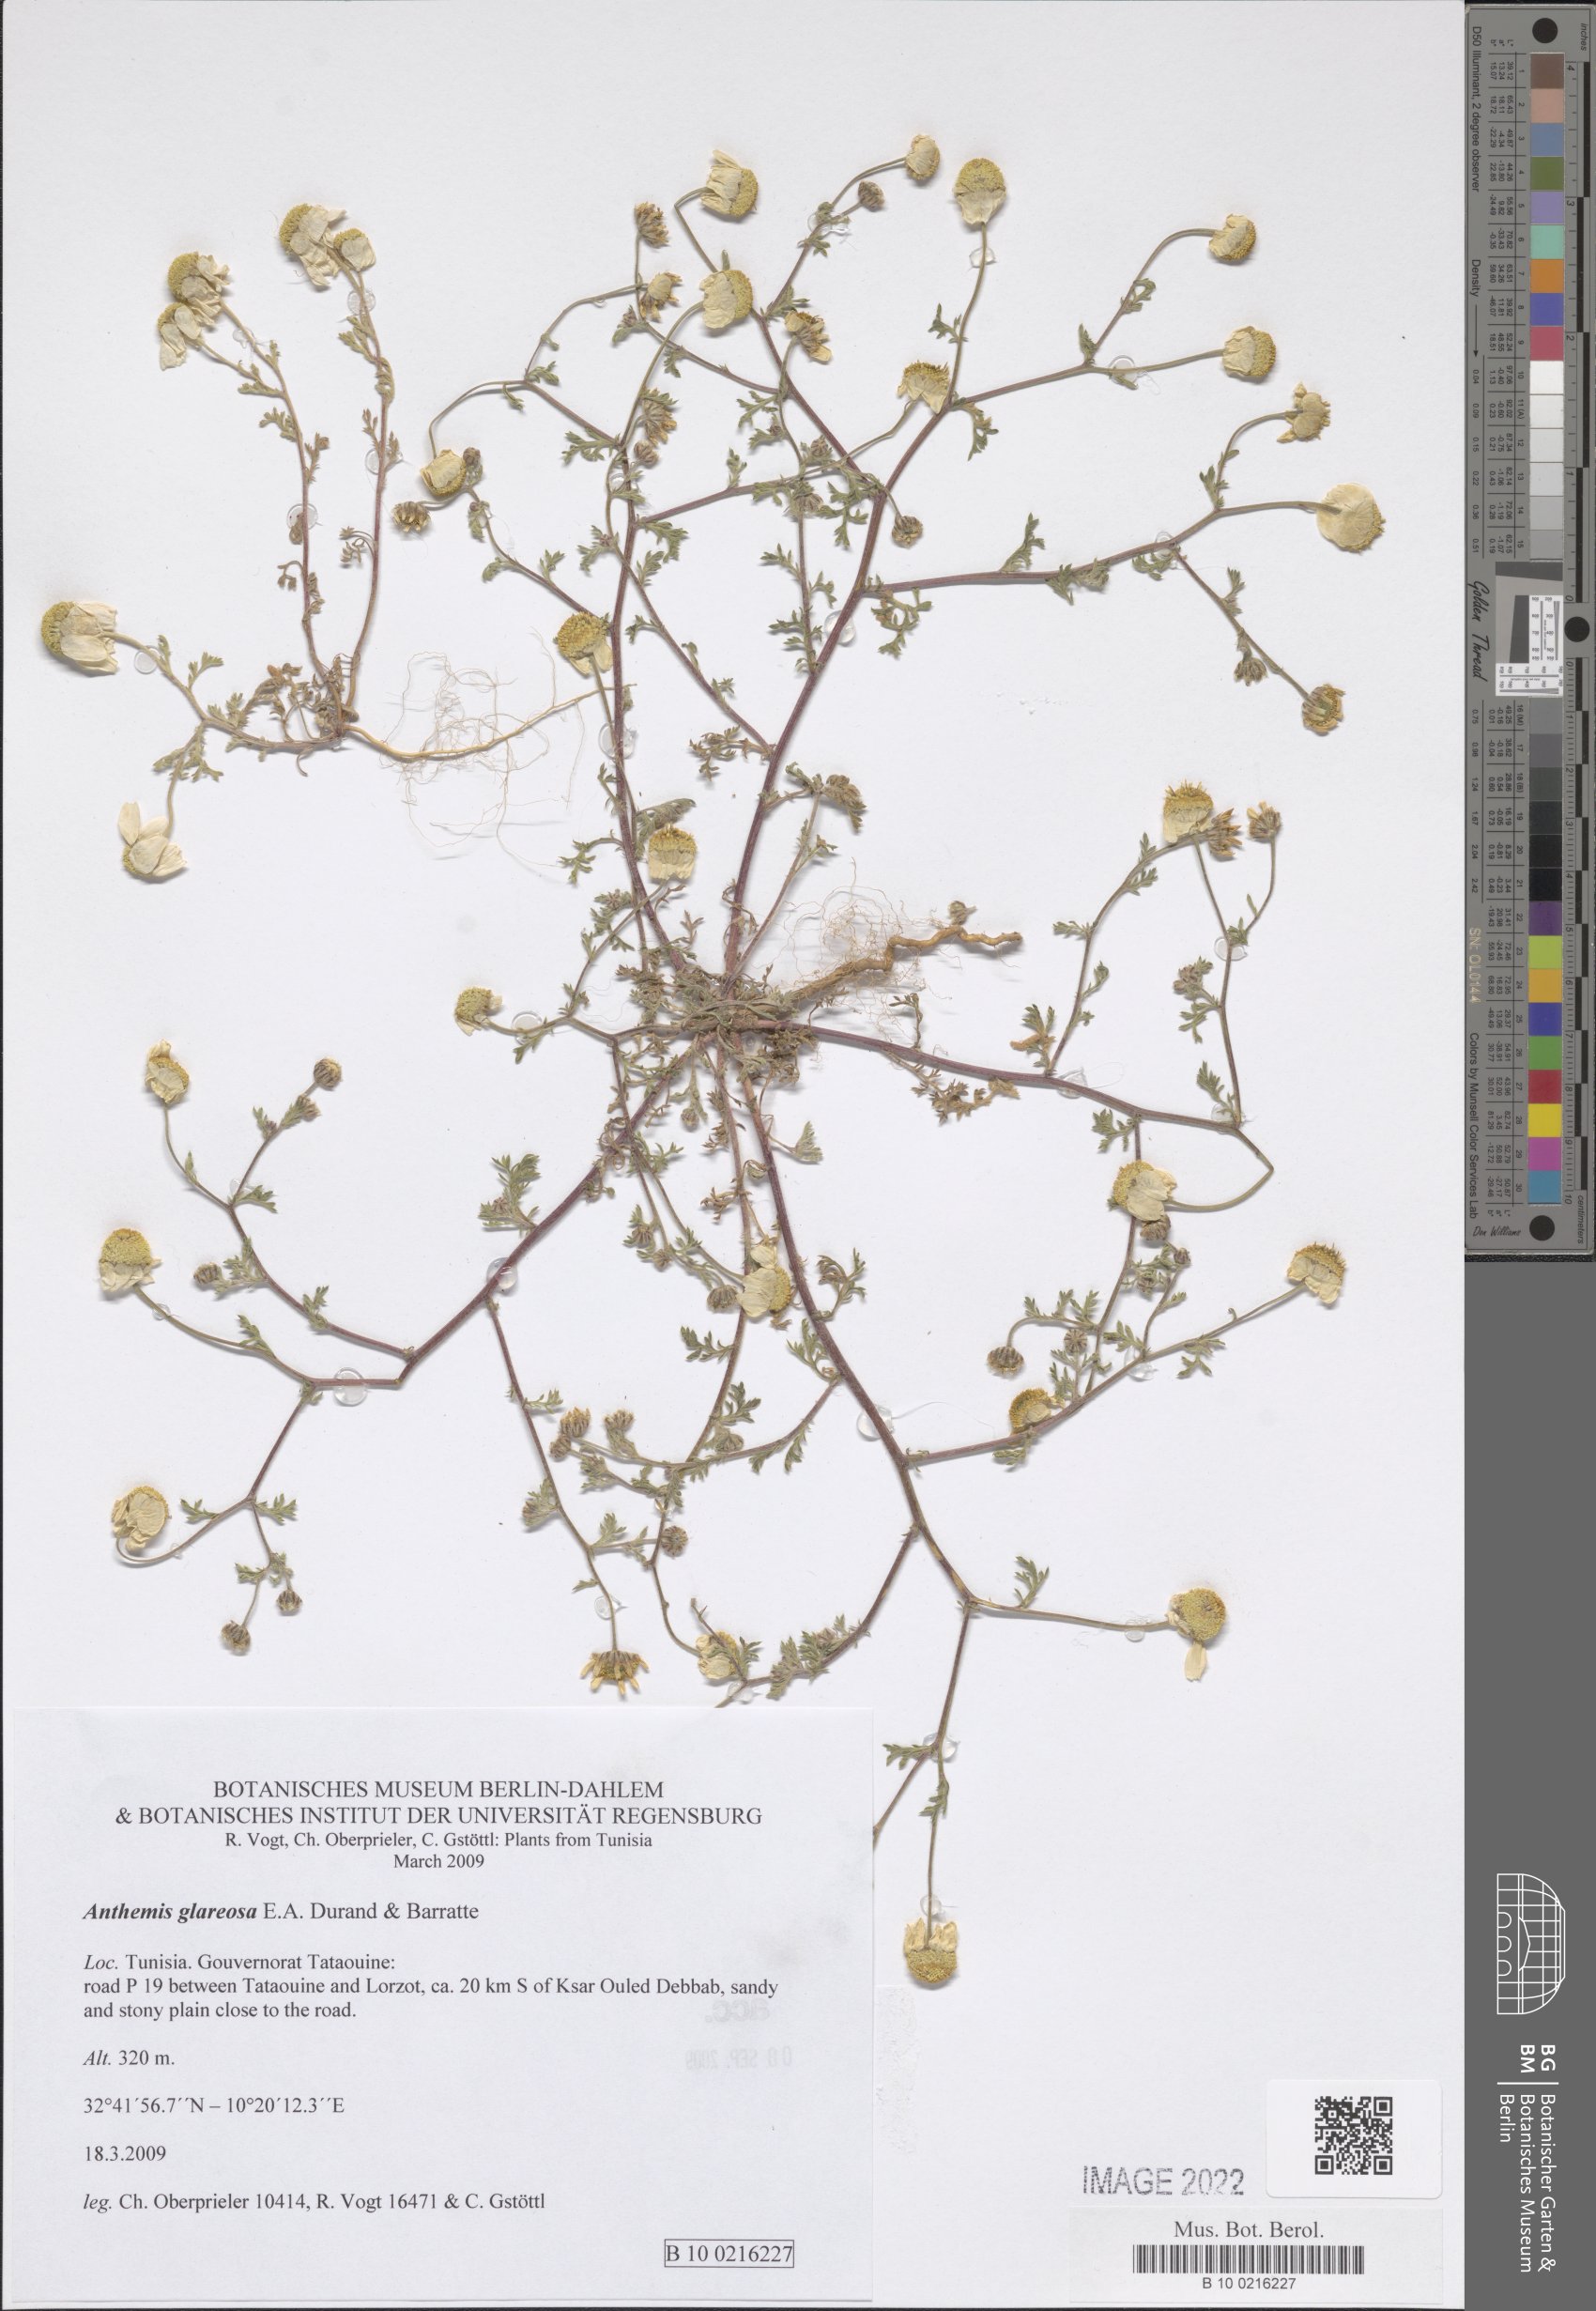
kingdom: Plantae
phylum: Tracheophyta
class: Magnoliopsida
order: Asterales
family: Asteraceae
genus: Anthemis
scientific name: Anthemis glareosa
